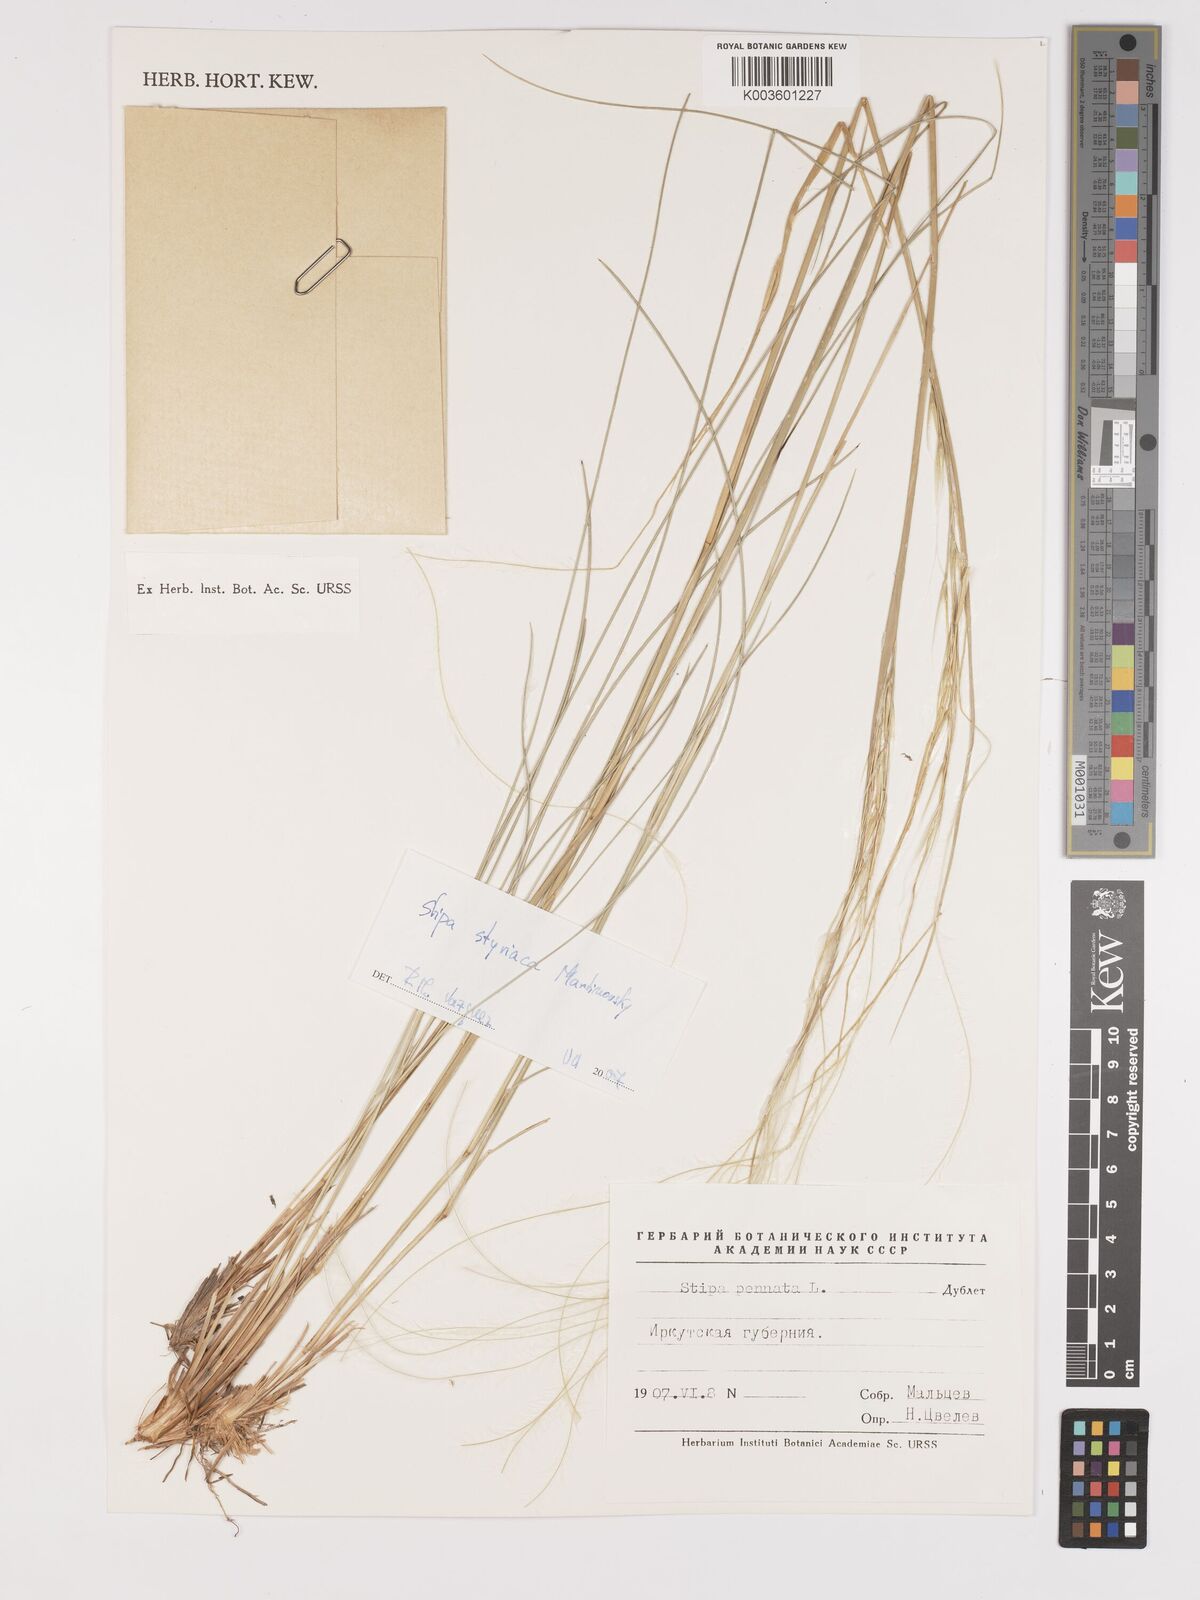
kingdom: Plantae
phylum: Tracheophyta
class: Liliopsida
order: Poales
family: Poaceae
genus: Stipa
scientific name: Stipa pennata
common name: European feather grass
